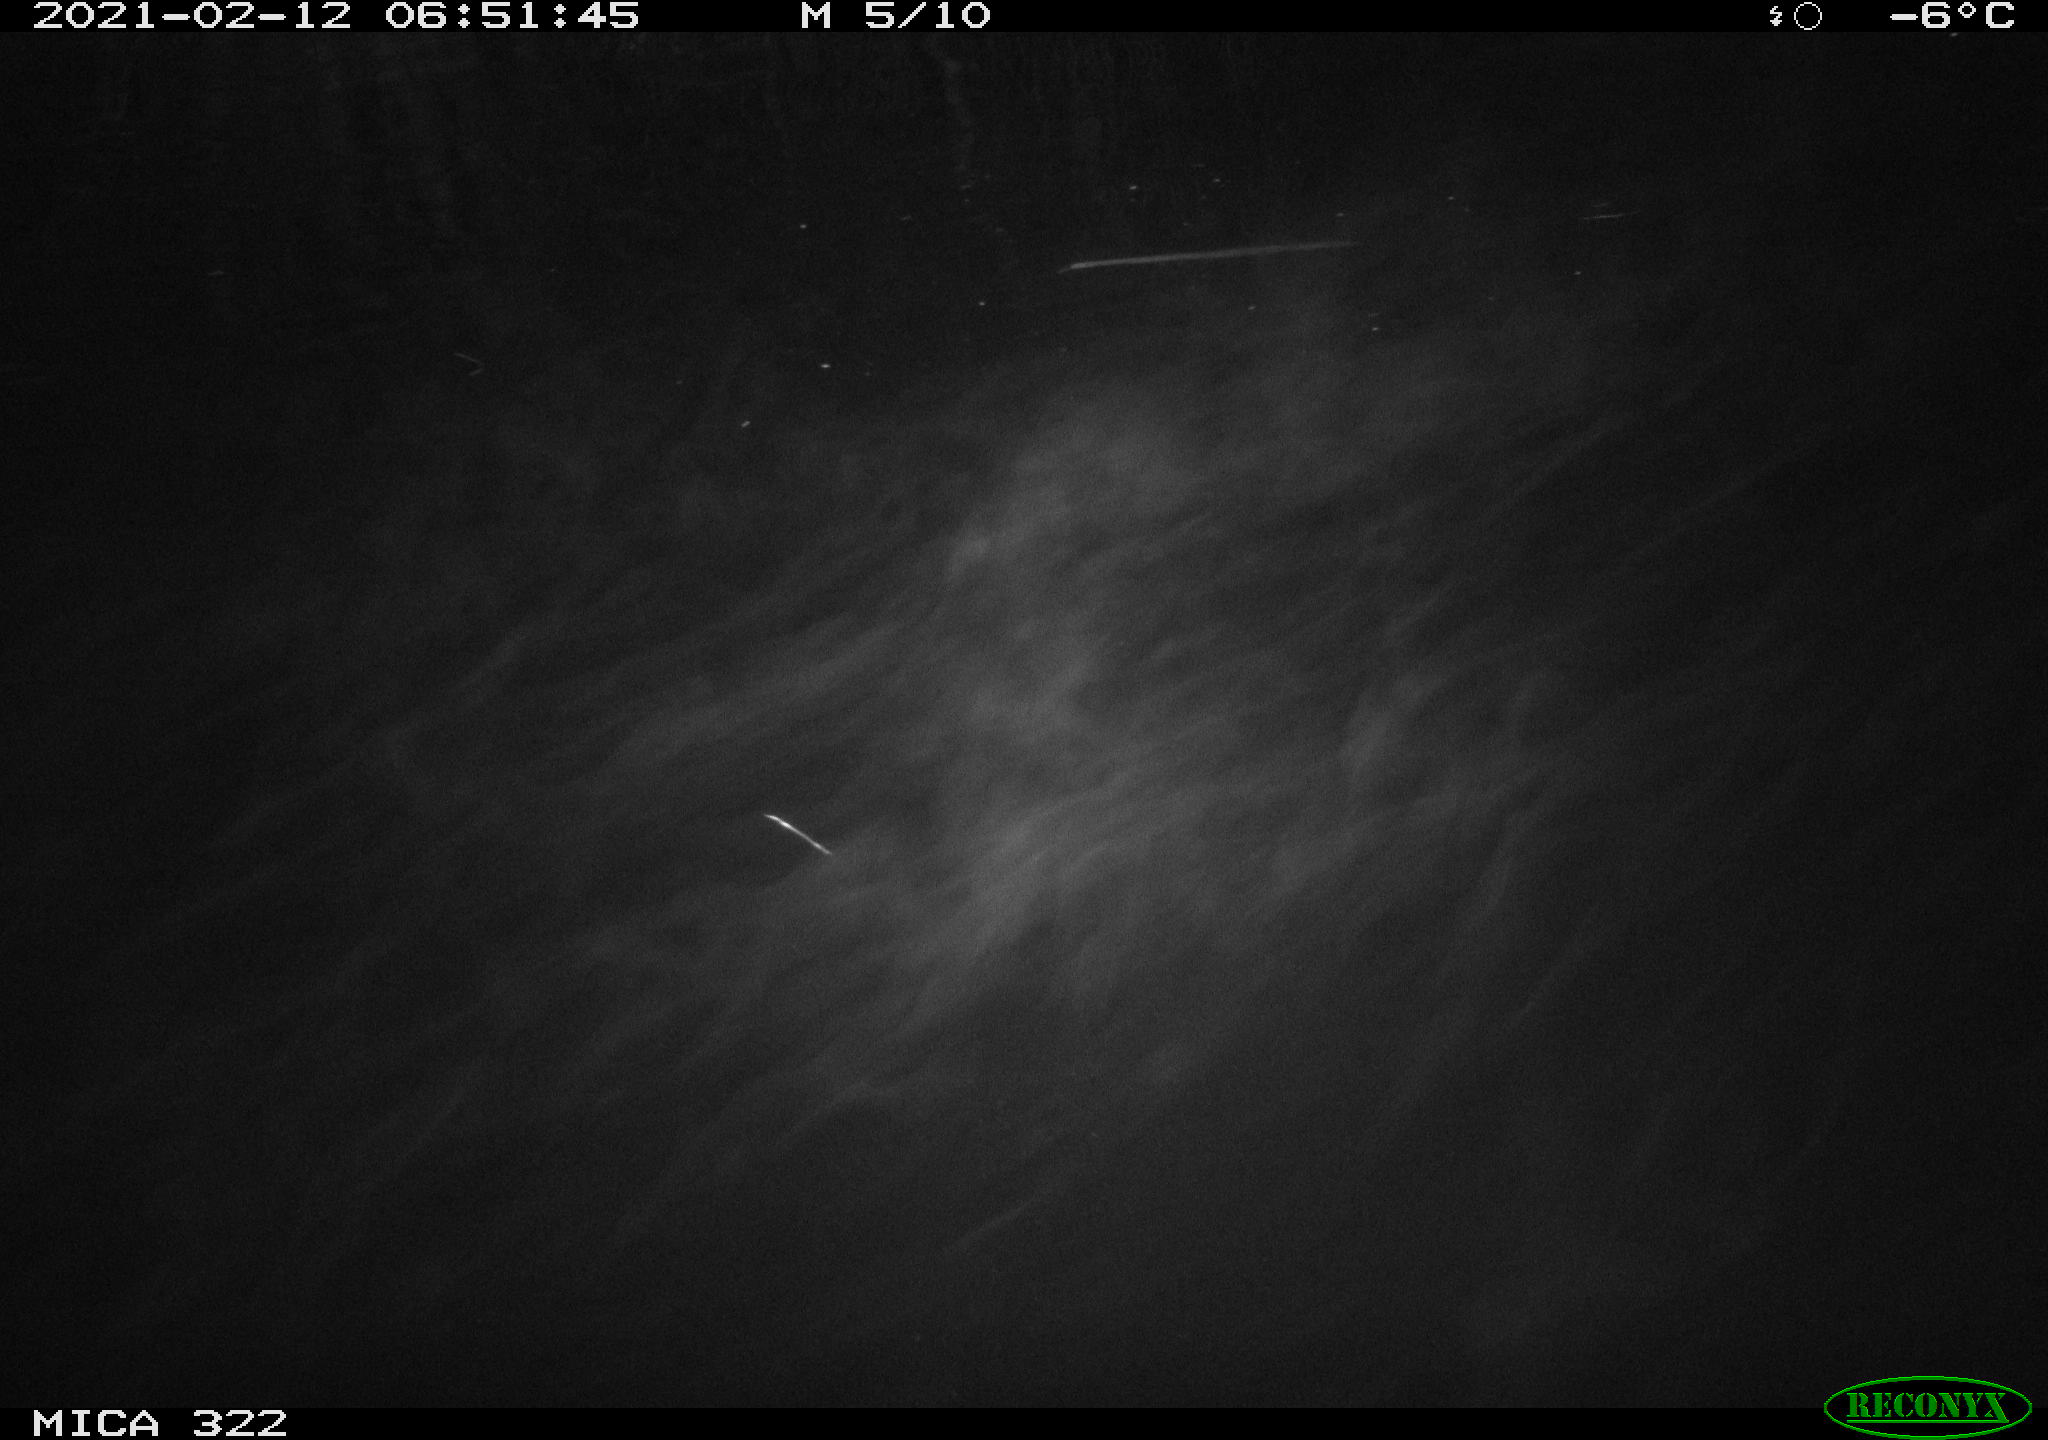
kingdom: Animalia
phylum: Chordata
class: Aves
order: Anseriformes
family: Anatidae
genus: Anas
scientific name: Anas platyrhynchos
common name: Mallard
